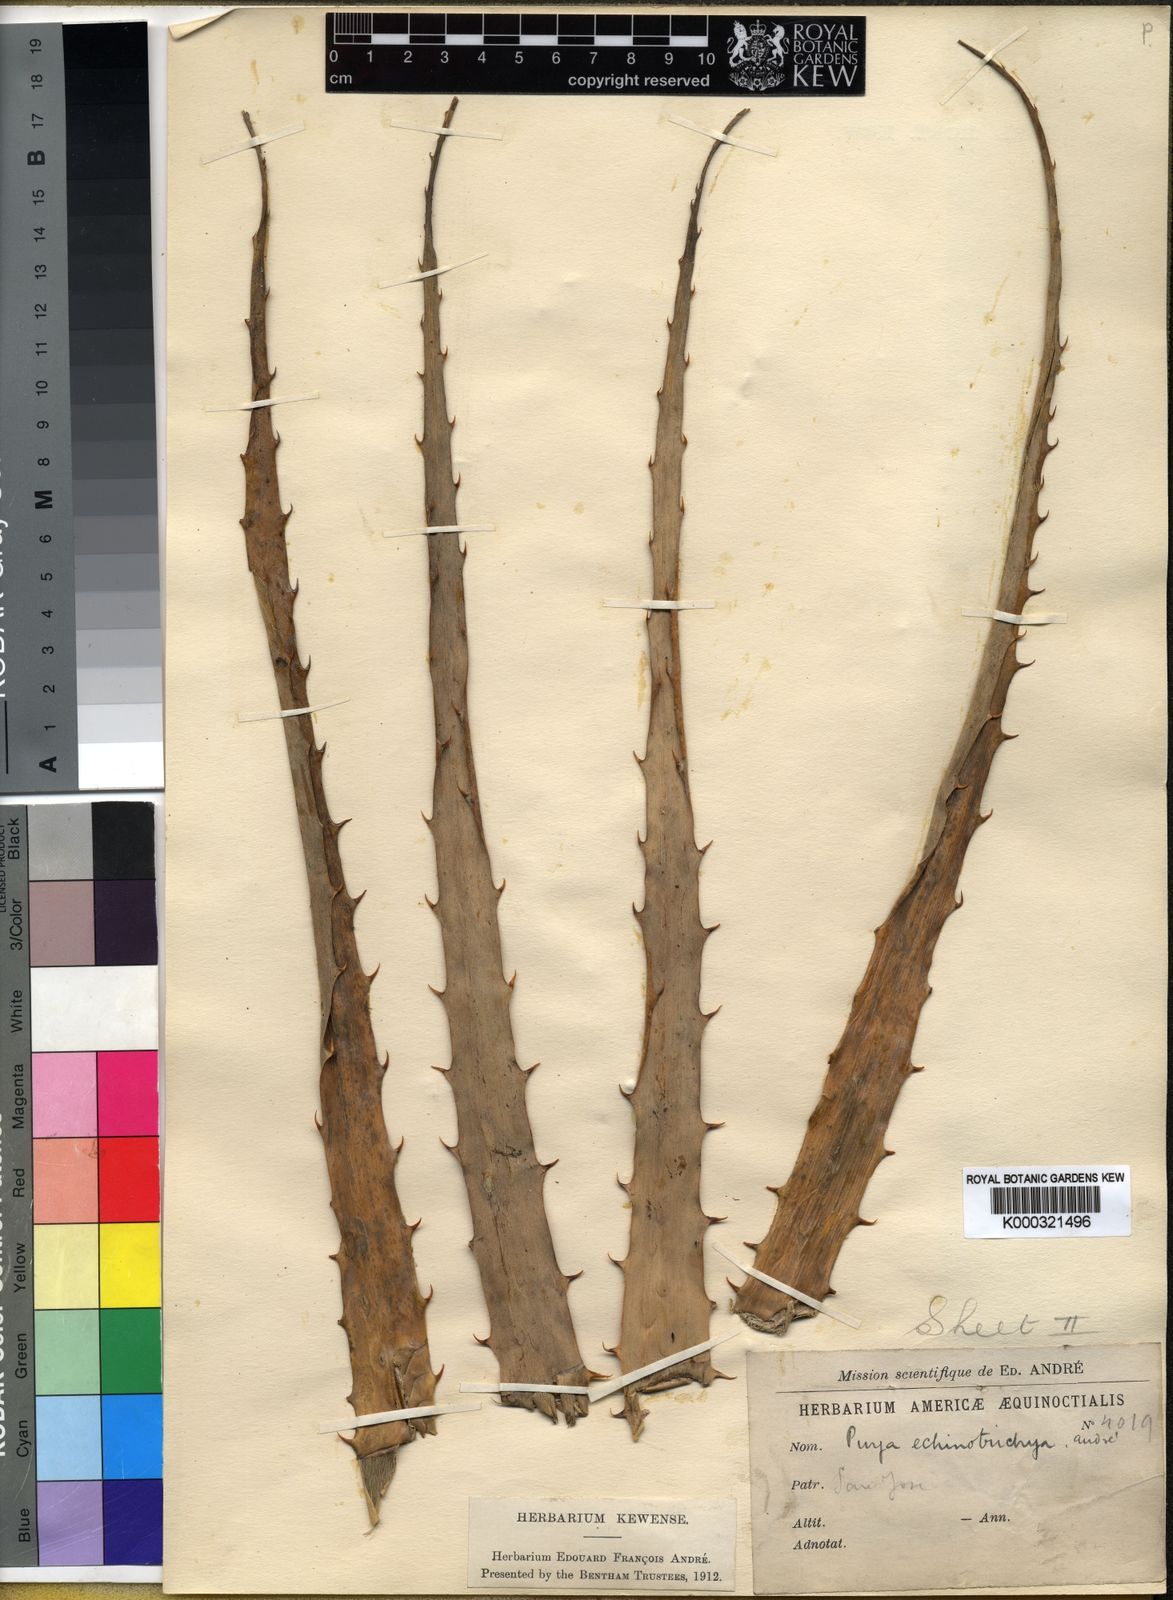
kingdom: Plantae
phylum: Tracheophyta
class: Liliopsida
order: Poales
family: Bromeliaceae
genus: Puya
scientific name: Puya ferruginea
